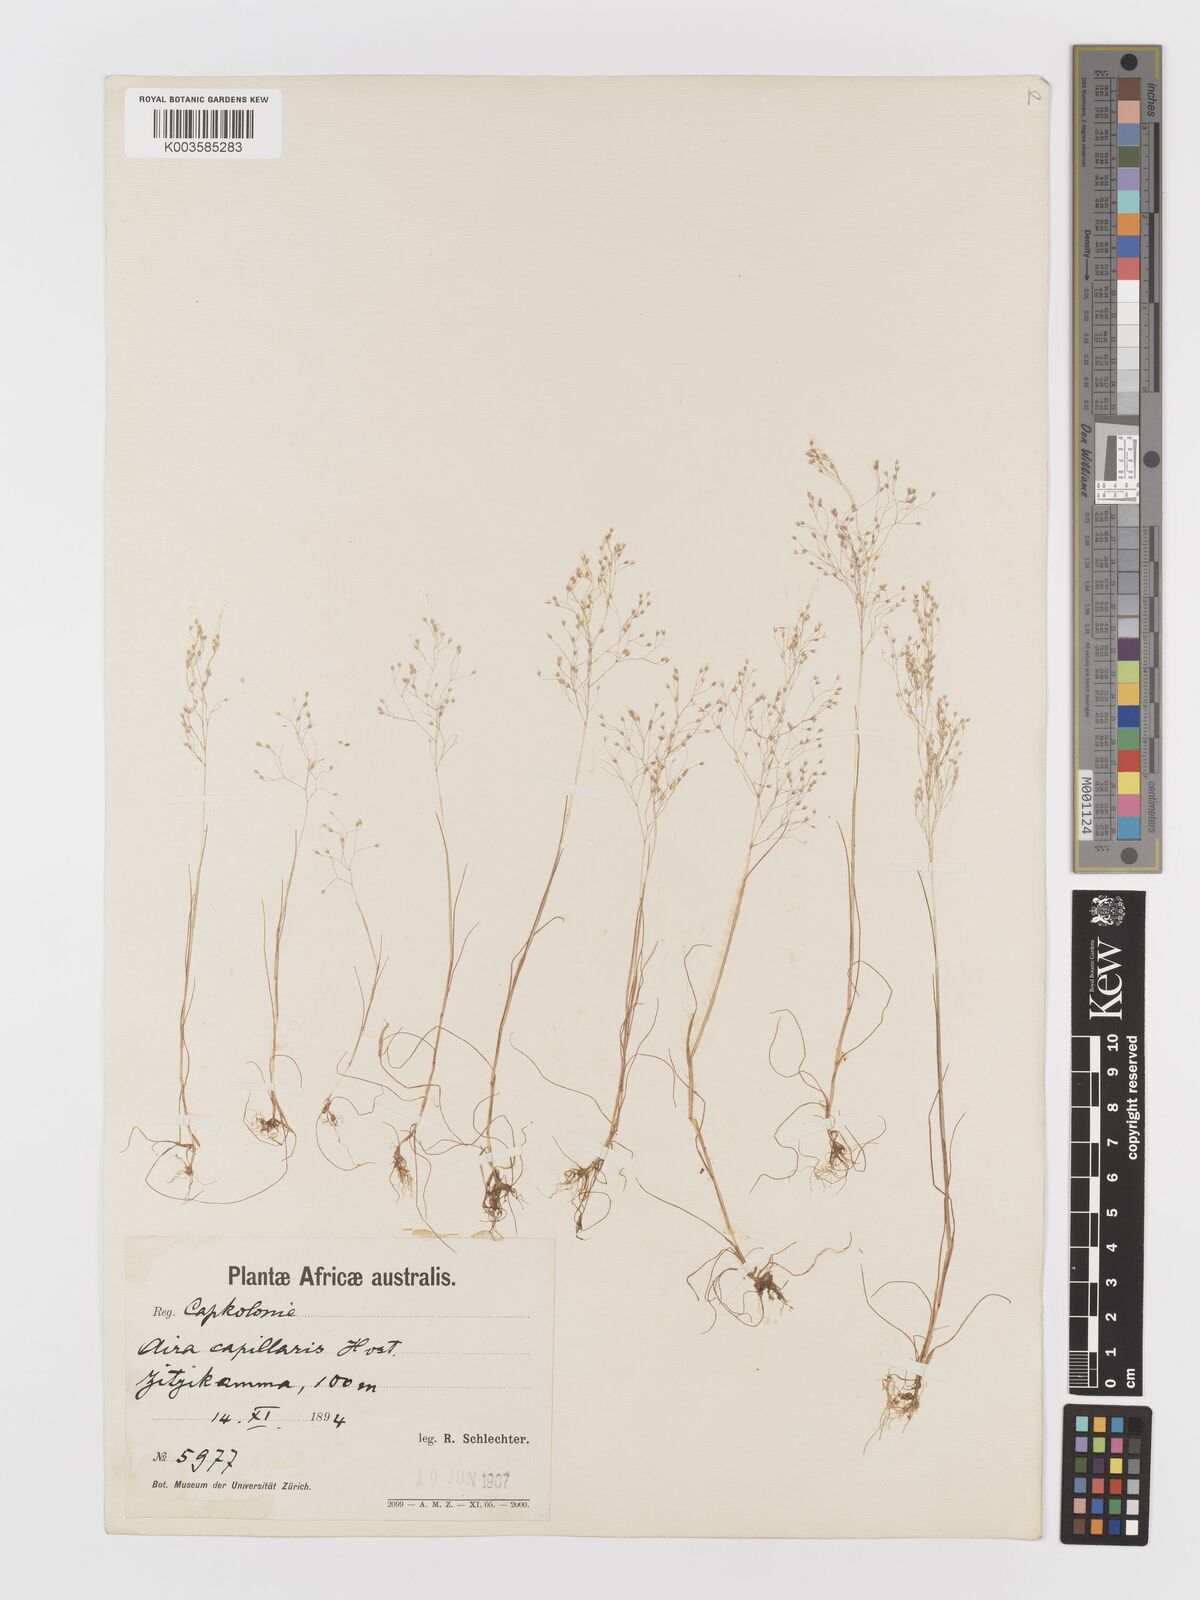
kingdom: Plantae
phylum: Tracheophyta
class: Liliopsida
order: Poales
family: Poaceae
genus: Aira
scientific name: Aira cupaniana
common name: Silver hairgrass
